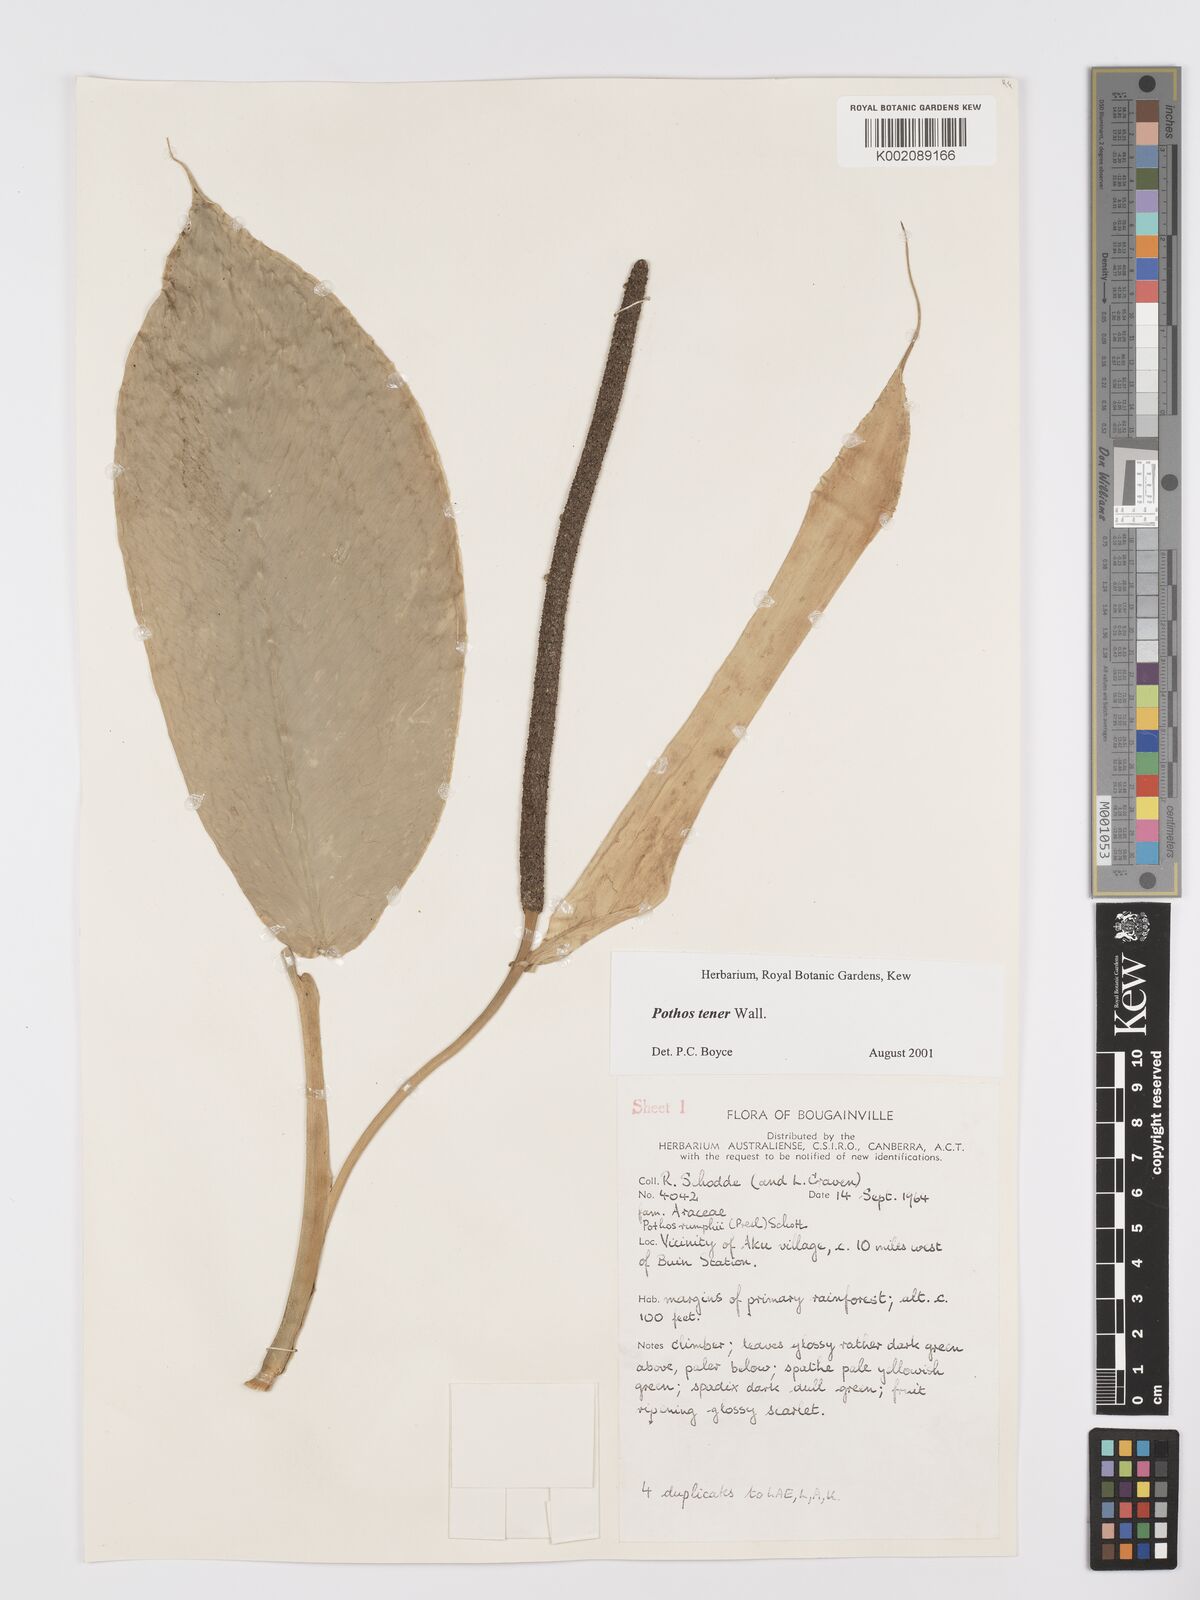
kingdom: Plantae
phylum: Tracheophyta
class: Liliopsida
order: Alismatales
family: Araceae
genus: Pothos
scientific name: Pothos tener
